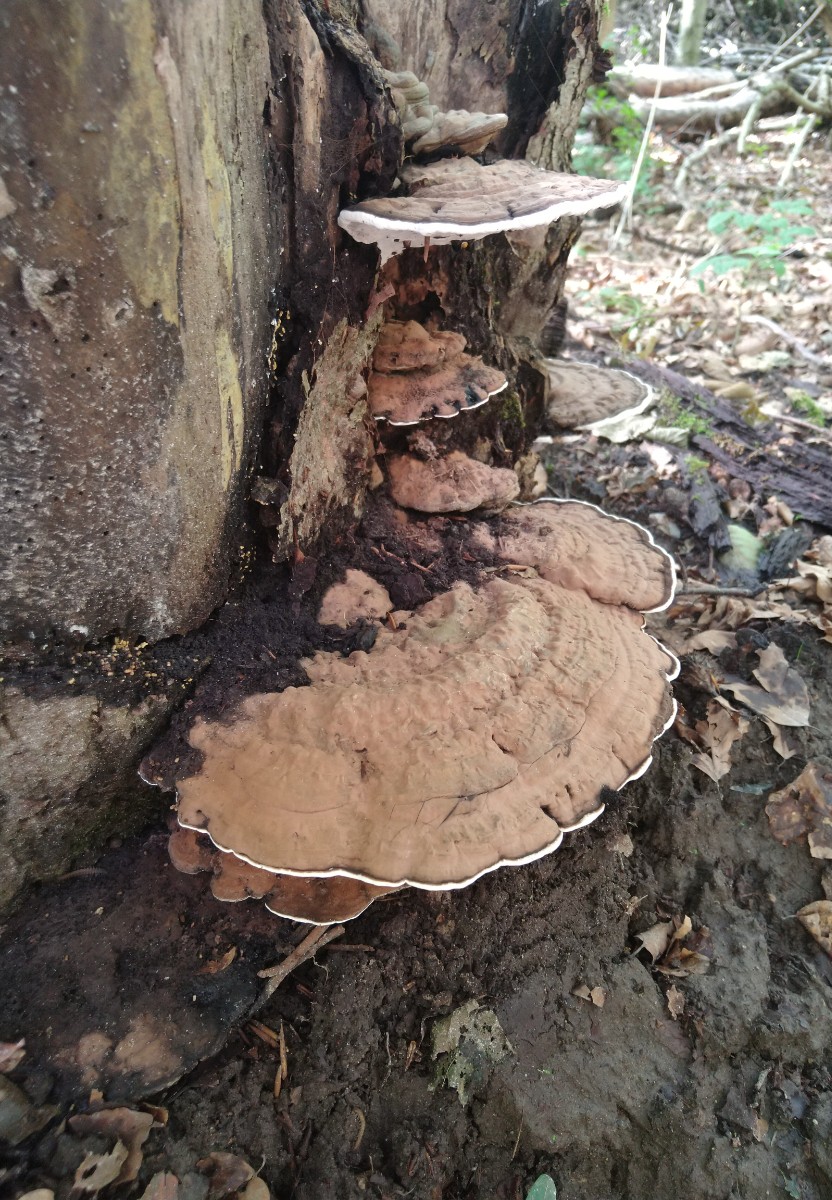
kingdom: Fungi
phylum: Basidiomycota
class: Agaricomycetes
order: Polyporales
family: Polyporaceae
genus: Ganoderma
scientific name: Ganoderma applanatum
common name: flad lakporesvamp
